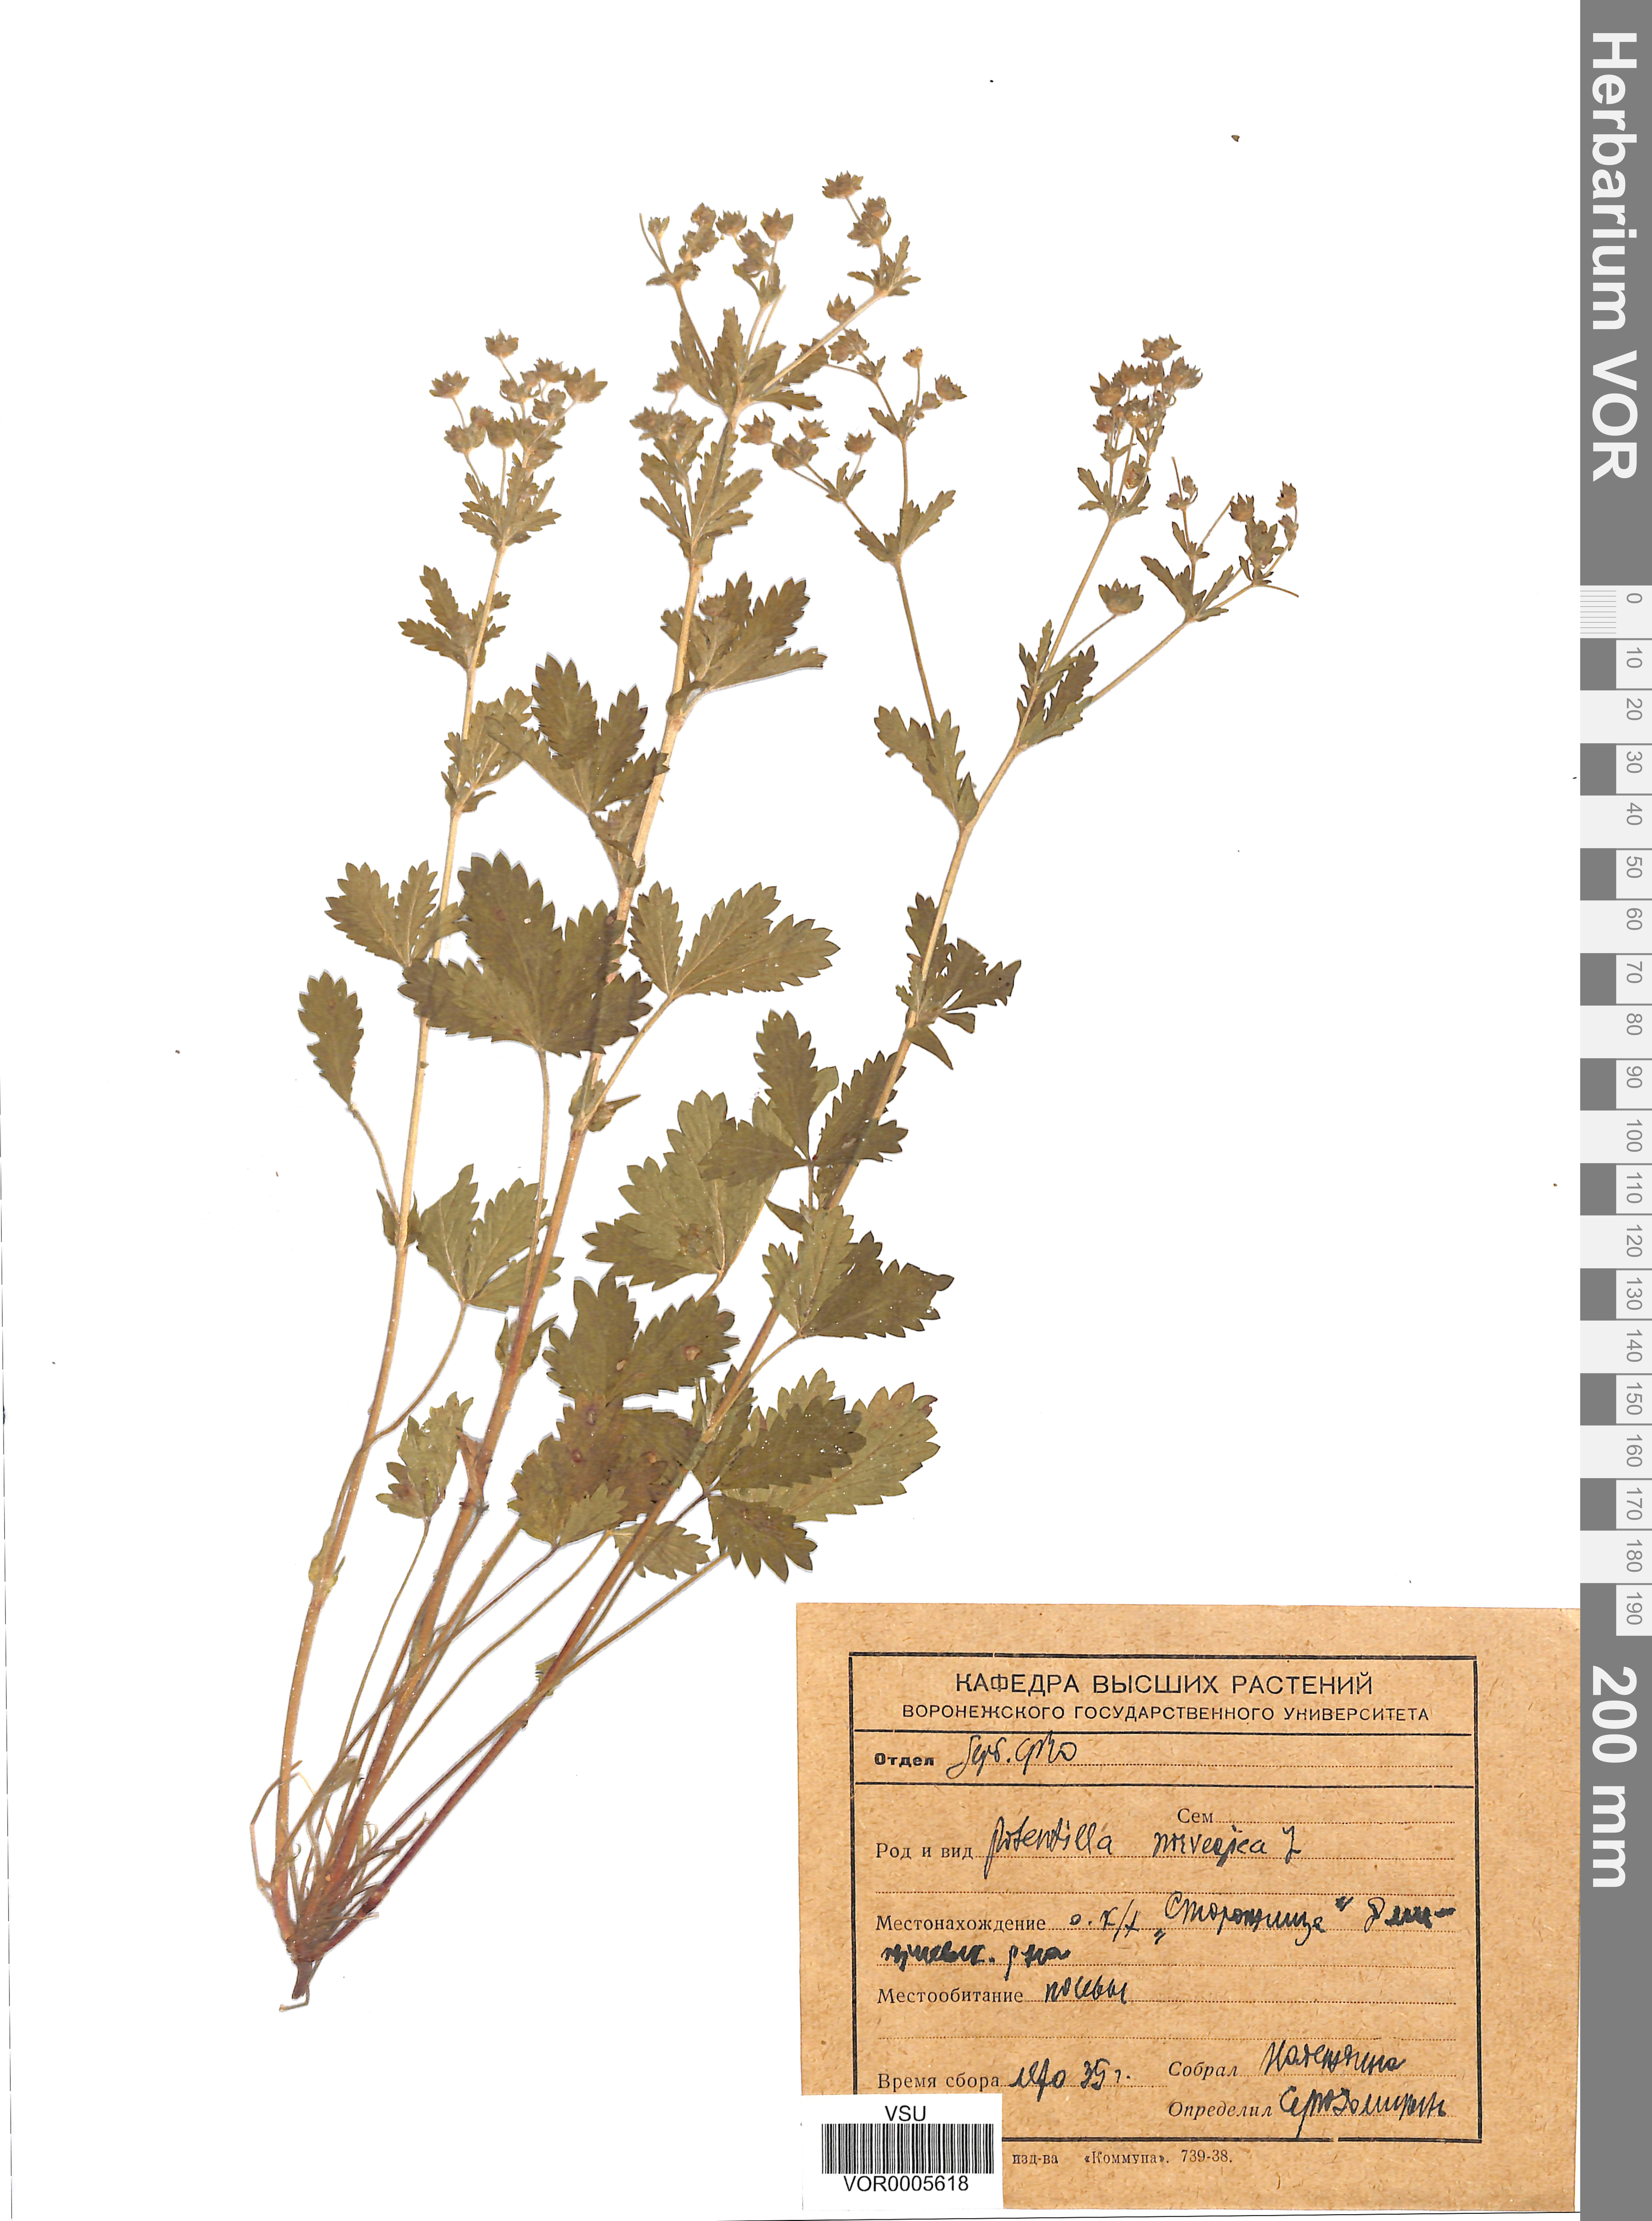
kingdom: Plantae
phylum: Tracheophyta
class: Magnoliopsida
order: Rosales
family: Rosaceae
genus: Potentilla
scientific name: Potentilla norvegica
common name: Ternate-leaved cinquefoil
